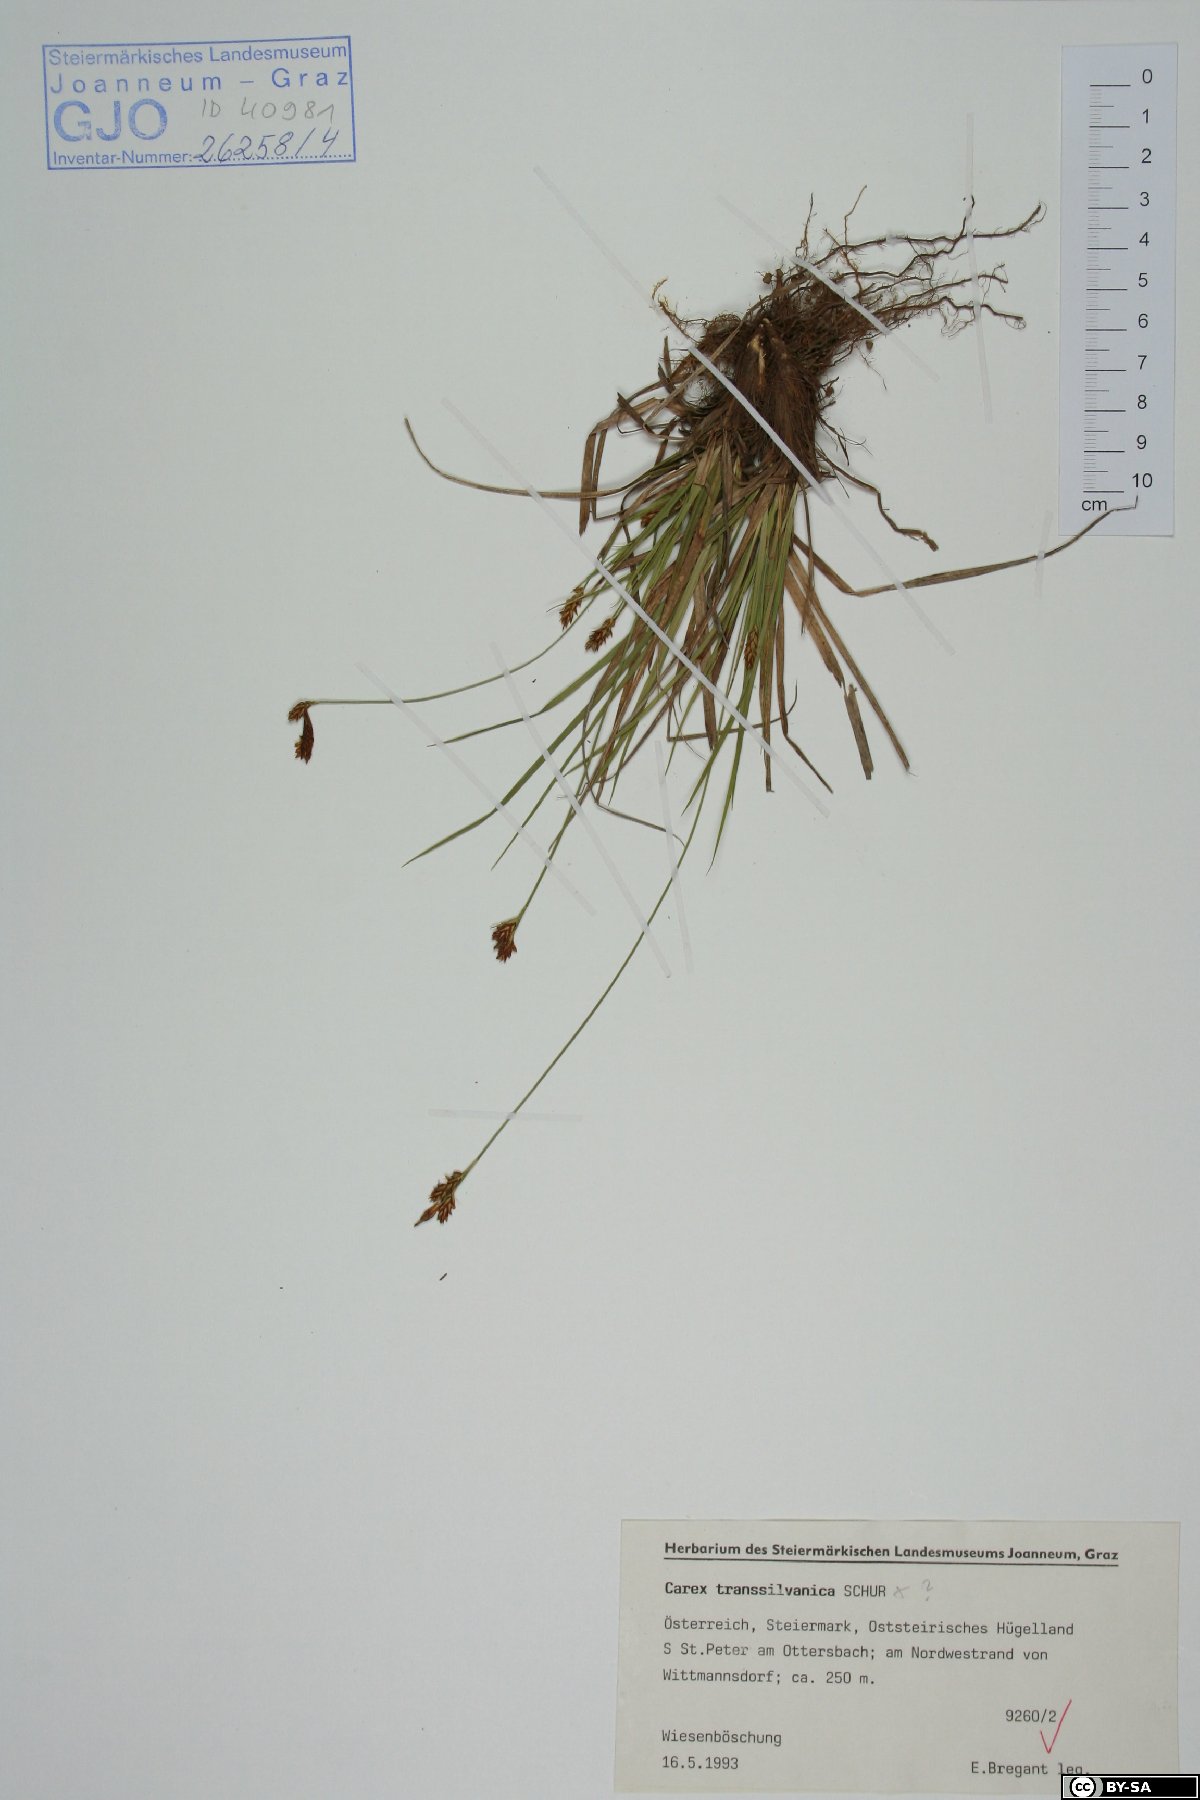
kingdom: Plantae
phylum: Tracheophyta
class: Liliopsida
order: Poales
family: Cyperaceae
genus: Carex
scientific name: Carex depressa
